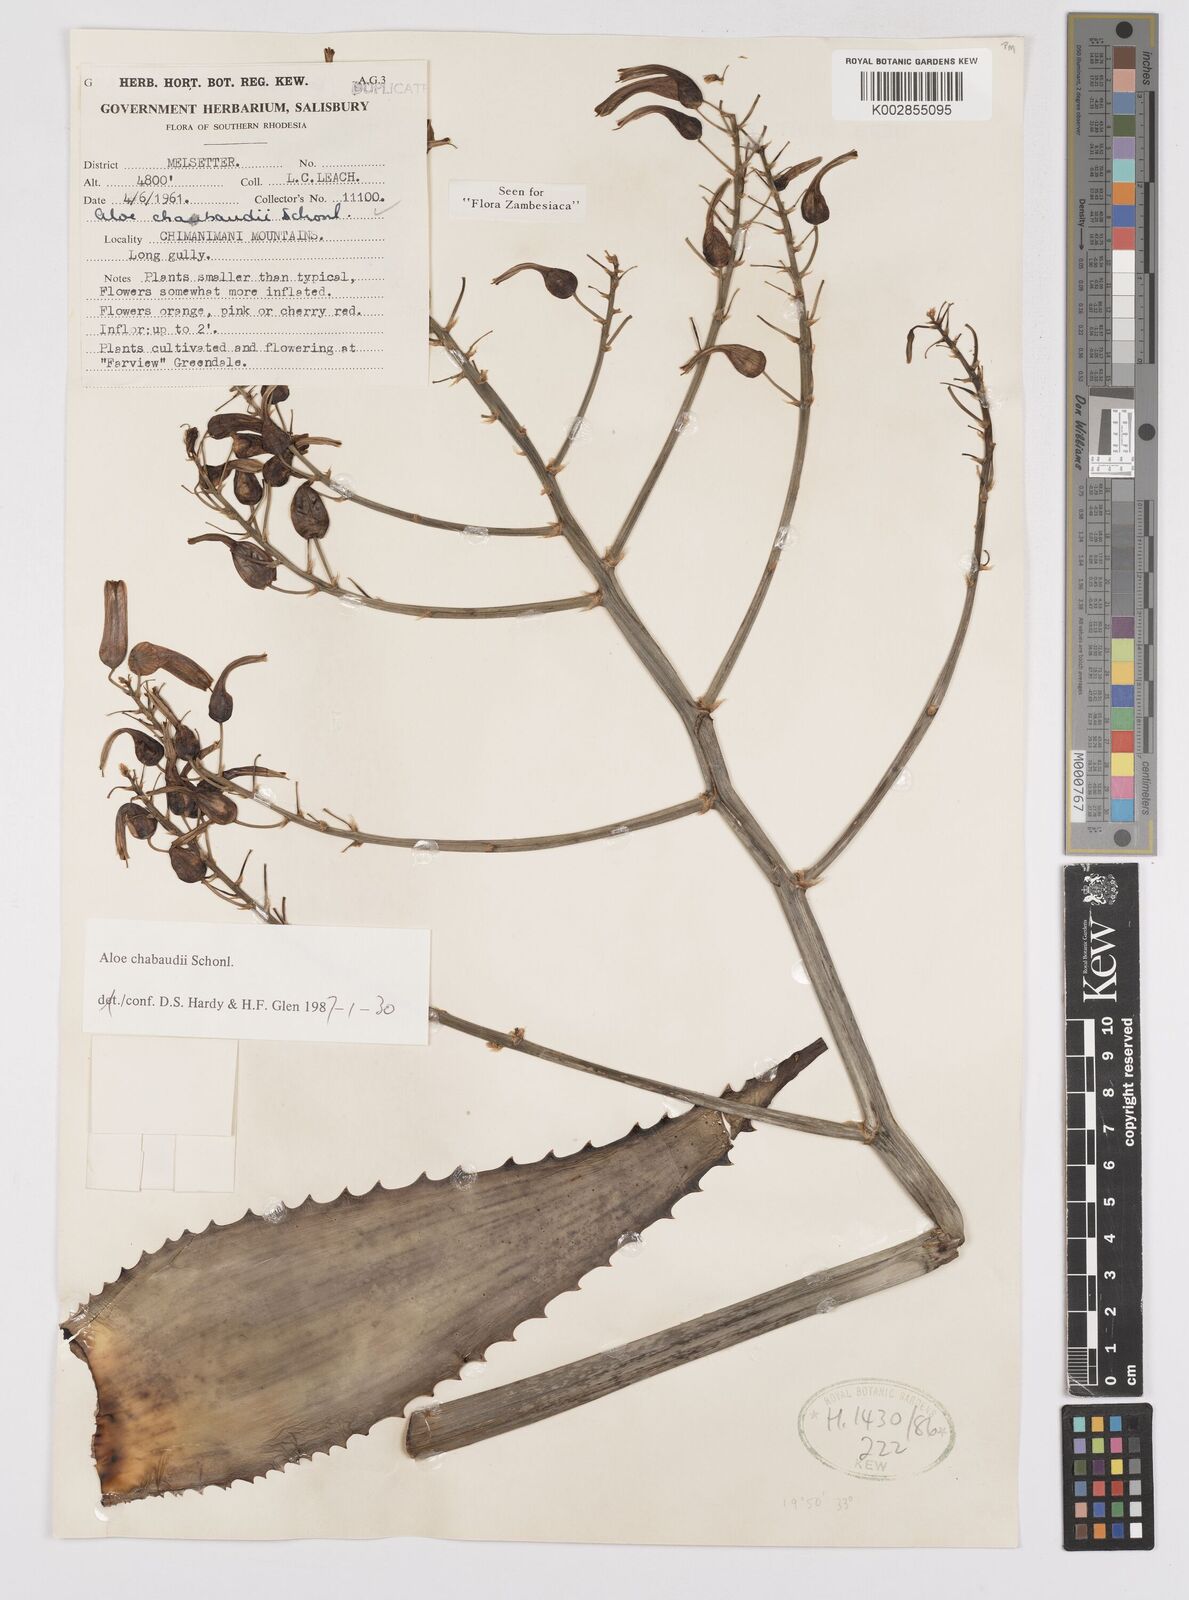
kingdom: Plantae
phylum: Tracheophyta
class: Liliopsida
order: Asparagales
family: Asphodelaceae
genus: Aloe
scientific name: Aloe chabaudii
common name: Chabaud's aloe
